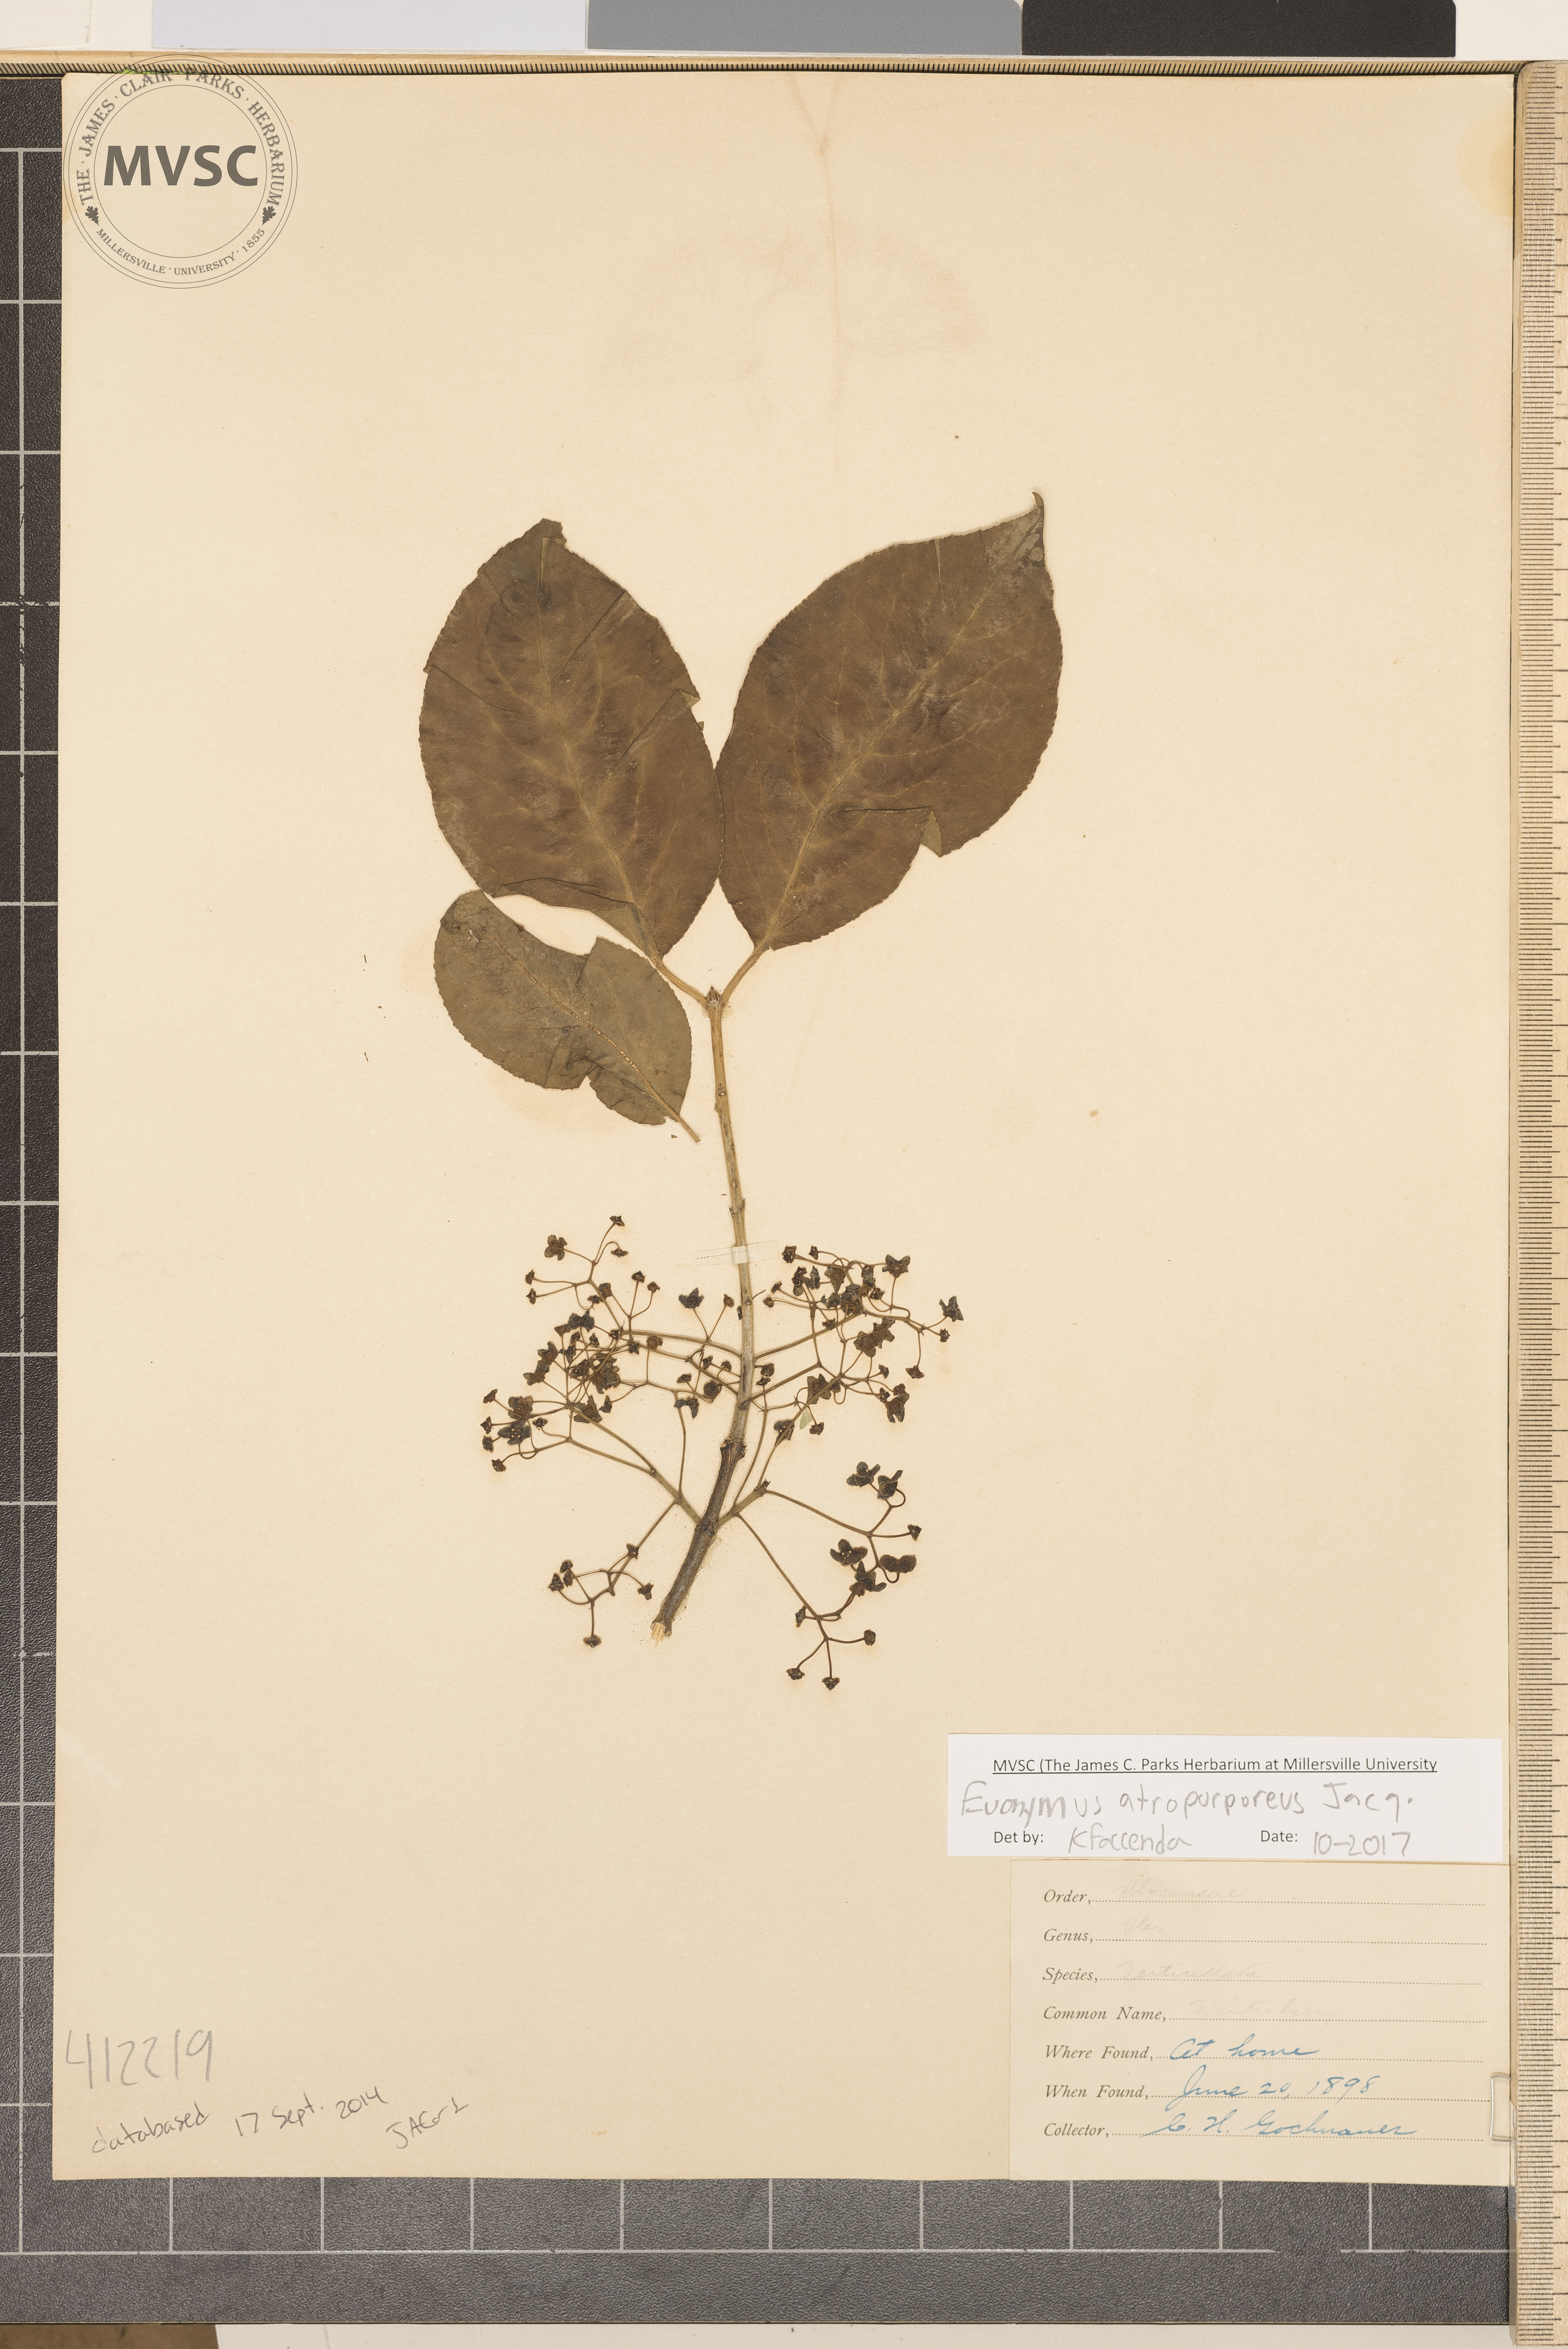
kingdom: Plantae
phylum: Tracheophyta
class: Magnoliopsida
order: Celastrales
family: Celastraceae
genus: Euonymus
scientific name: Euonymus atropurpureus
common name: burningbush
